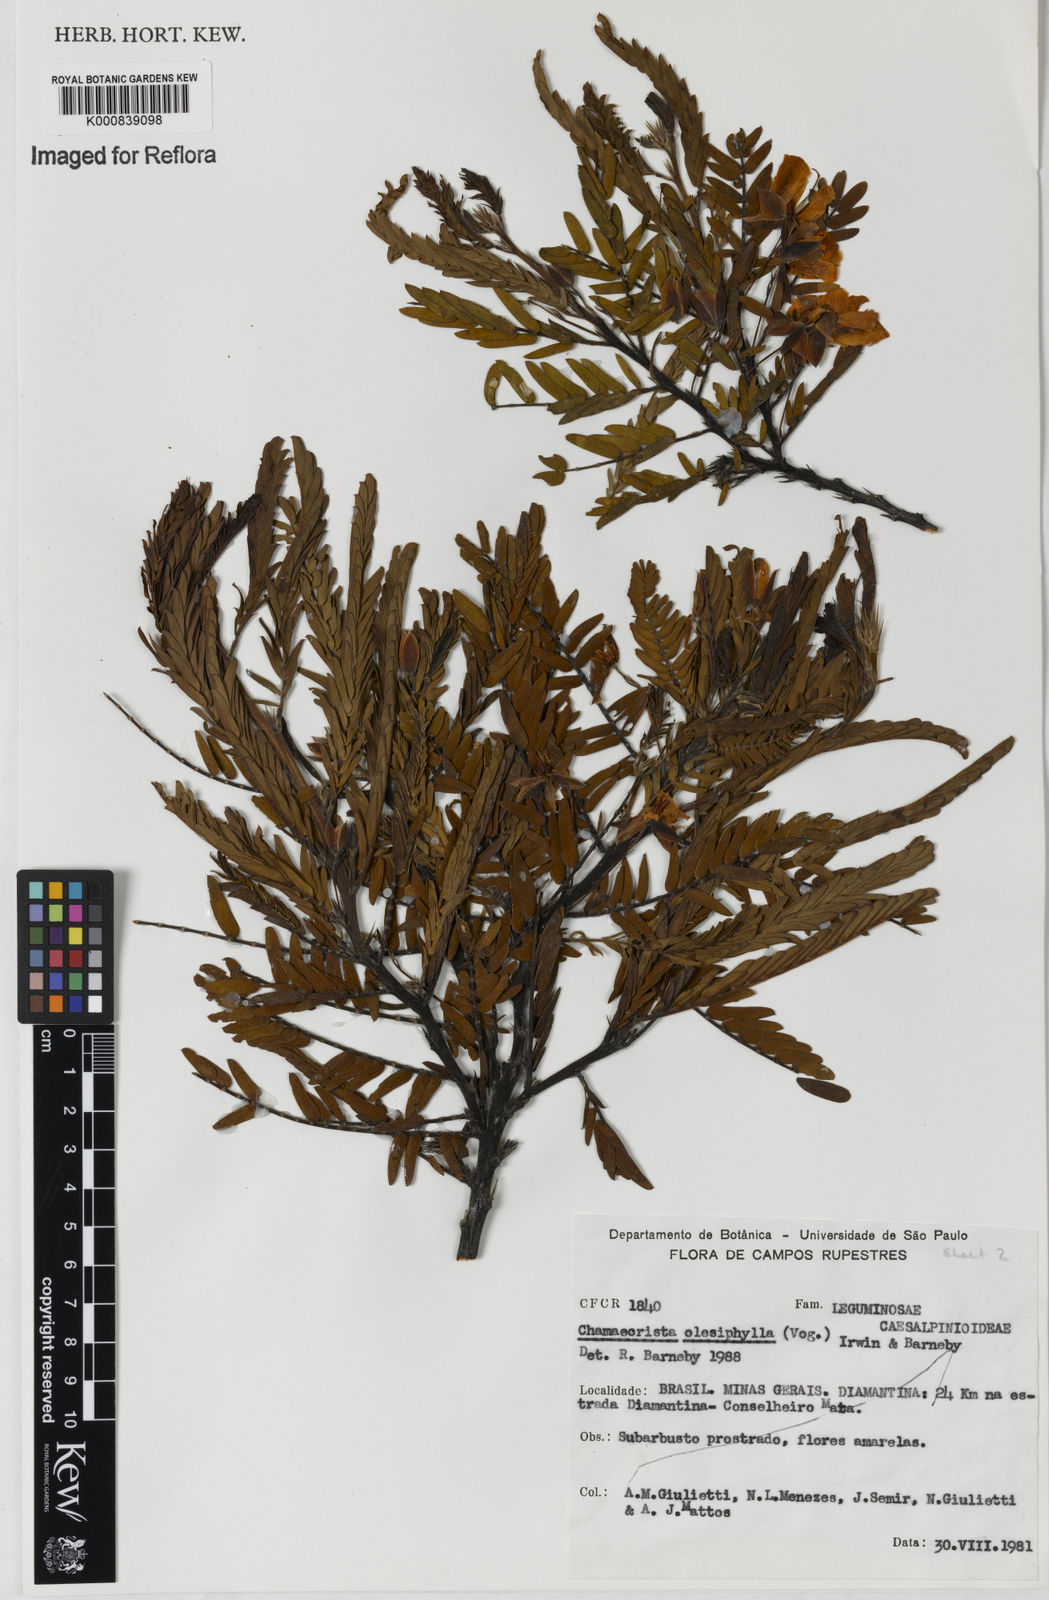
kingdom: Plantae
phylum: Tracheophyta
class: Magnoliopsida
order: Fabales
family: Fabaceae
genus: Chamaecrista
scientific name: Chamaecrista
